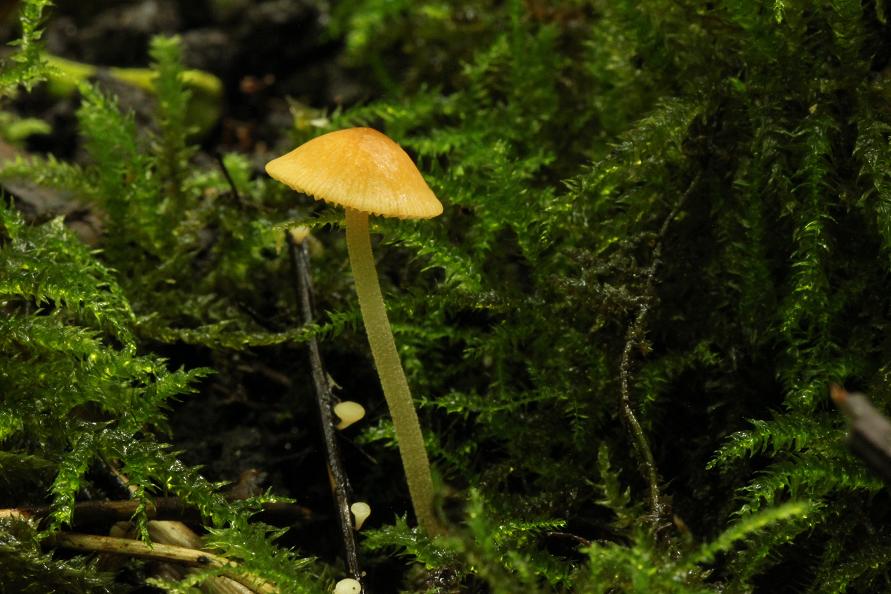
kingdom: Fungi
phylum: Basidiomycota
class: Agaricomycetes
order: Agaricales
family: Bolbitiaceae
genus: Conocybe
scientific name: Conocybe rickeniana
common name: kastaniebrun keglehat
